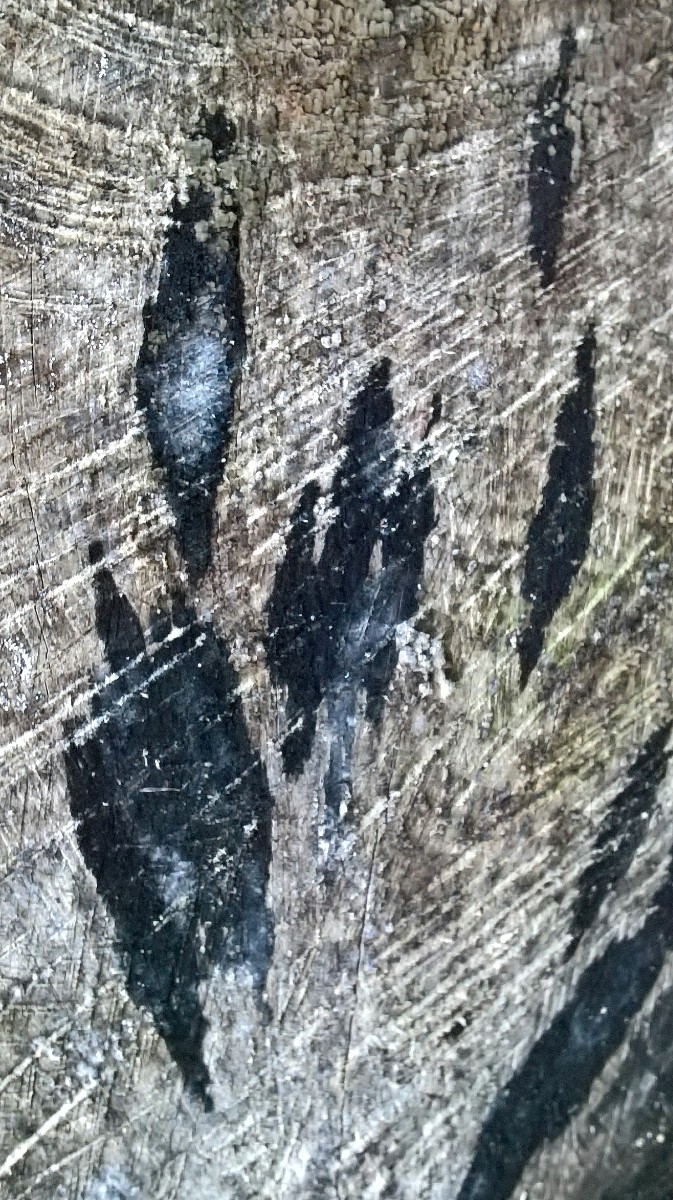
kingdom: Fungi
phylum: Ascomycota
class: Leotiomycetes
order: Helotiales
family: Helotiaceae
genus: Bispora
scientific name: Bispora pallescens
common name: måtte-snitskive
